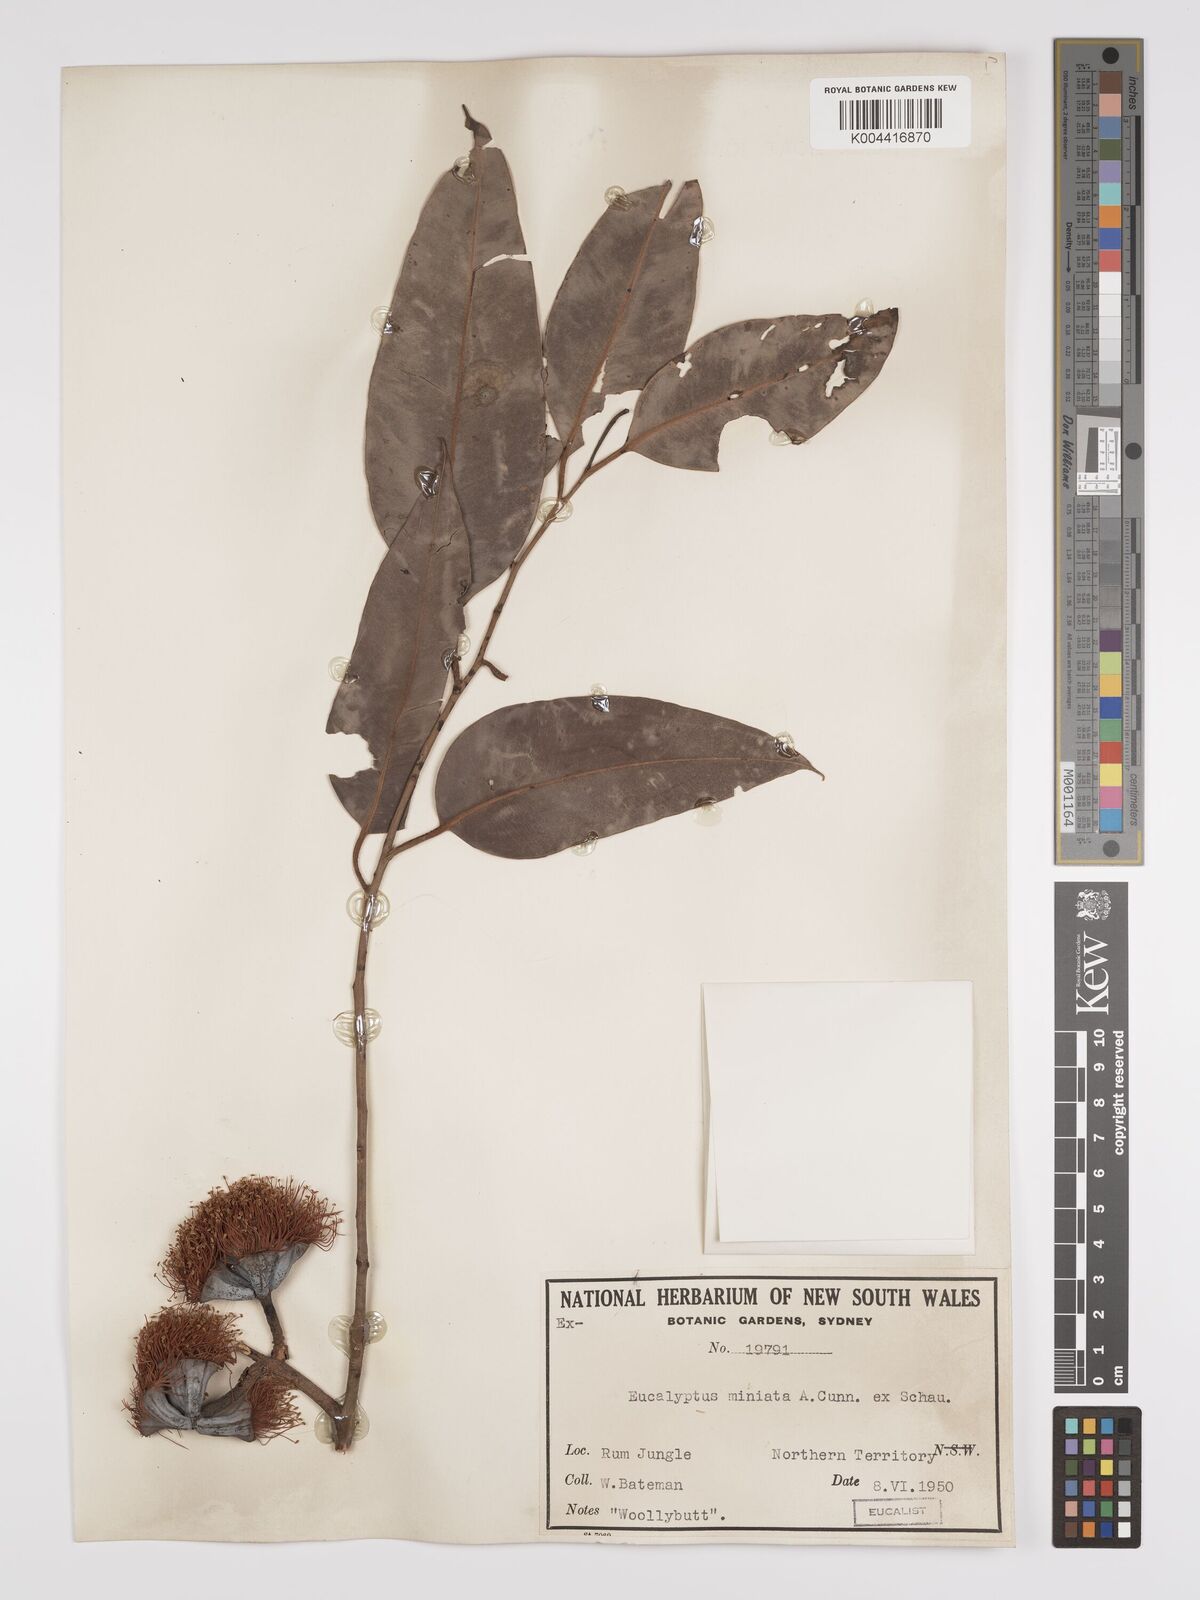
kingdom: Plantae
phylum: Tracheophyta
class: Magnoliopsida
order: Myrtales
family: Myrtaceae
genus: Eucalyptus
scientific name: Eucalyptus miniata
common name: Darwin-woollybutt
